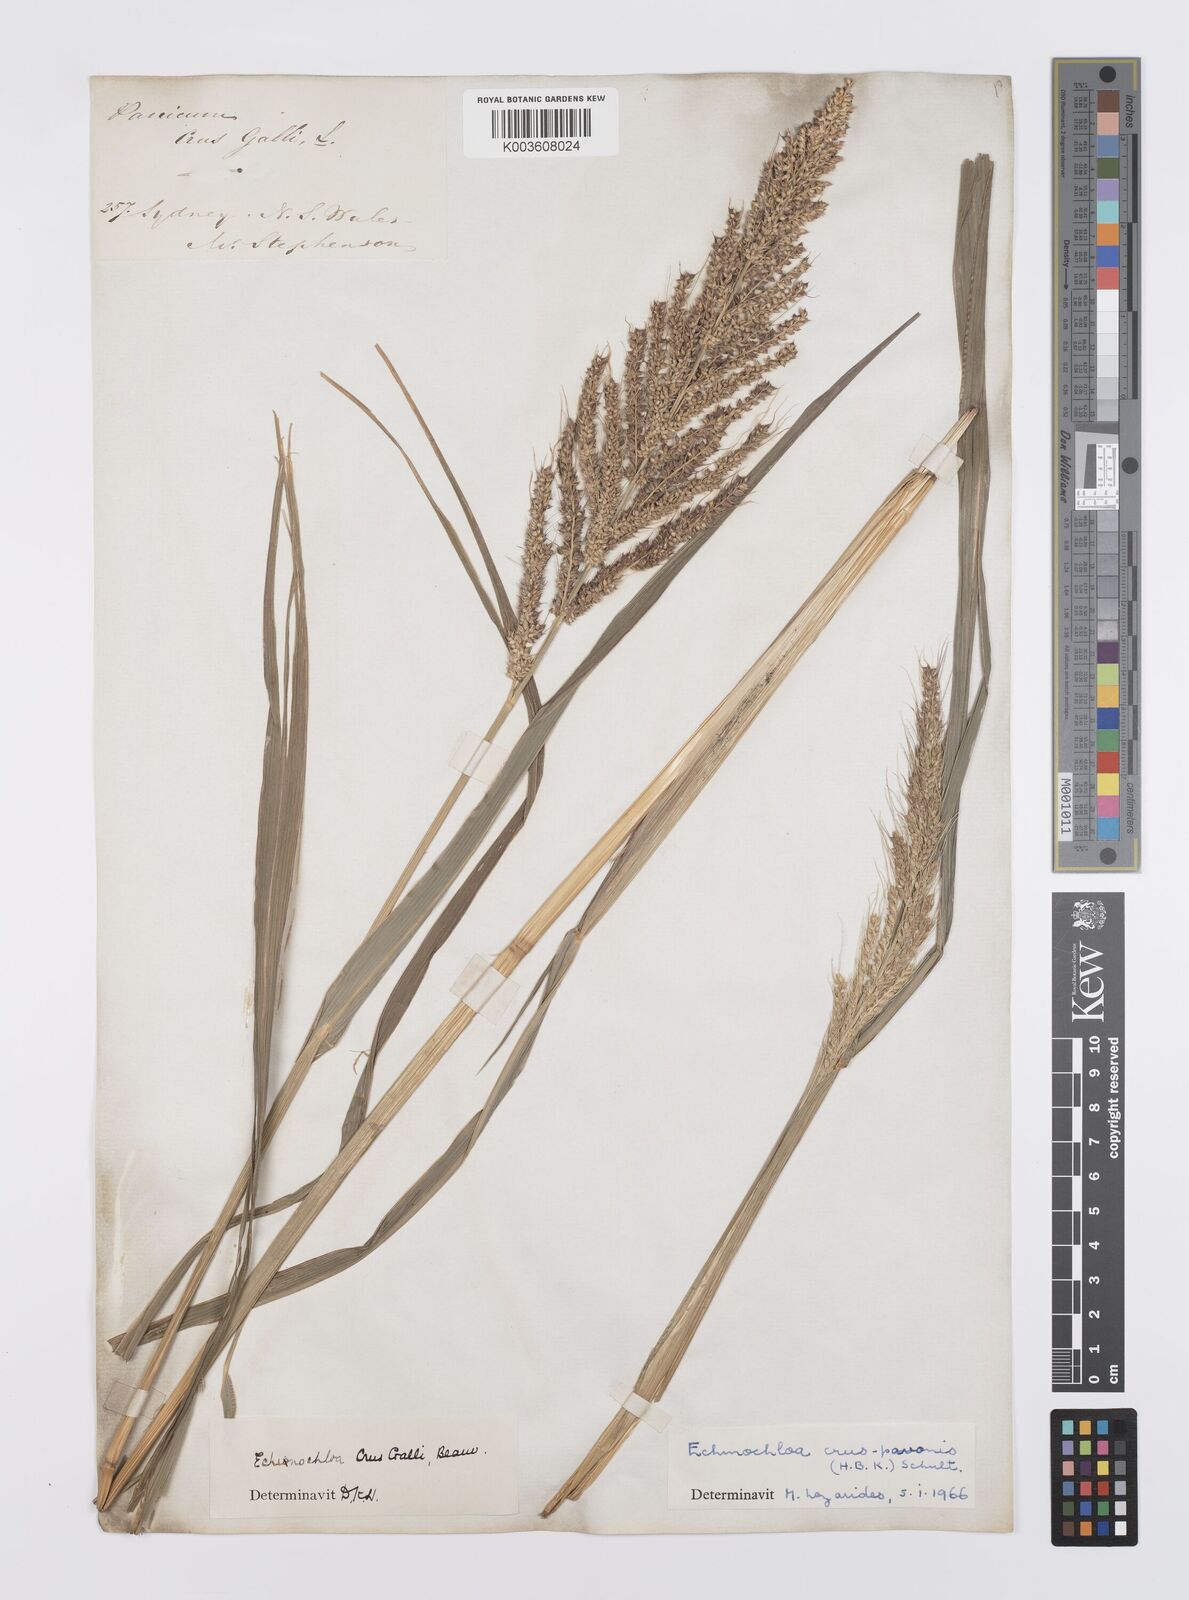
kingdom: Plantae
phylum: Tracheophyta
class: Liliopsida
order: Poales
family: Poaceae
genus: Echinochloa
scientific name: Echinochloa crus-galli
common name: Cockspur
